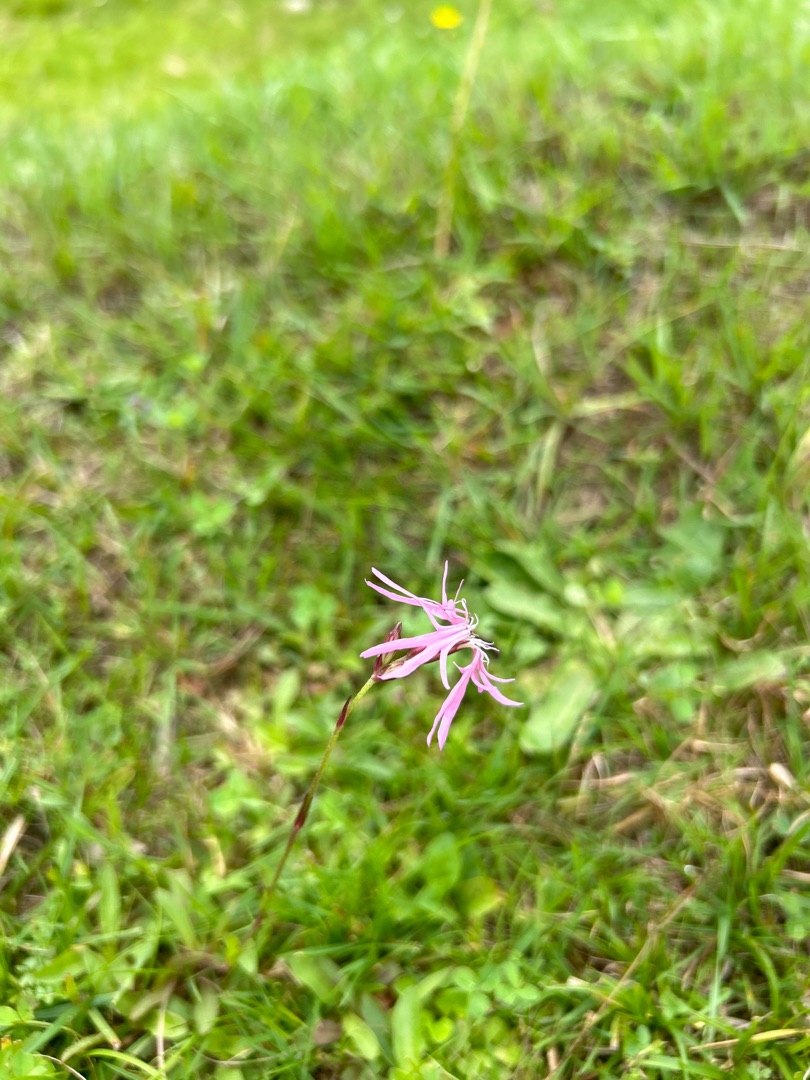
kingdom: Plantae
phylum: Tracheophyta
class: Magnoliopsida
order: Caryophyllales
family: Caryophyllaceae
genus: Silene
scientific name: Silene flos-cuculi
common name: Trævlekrone
